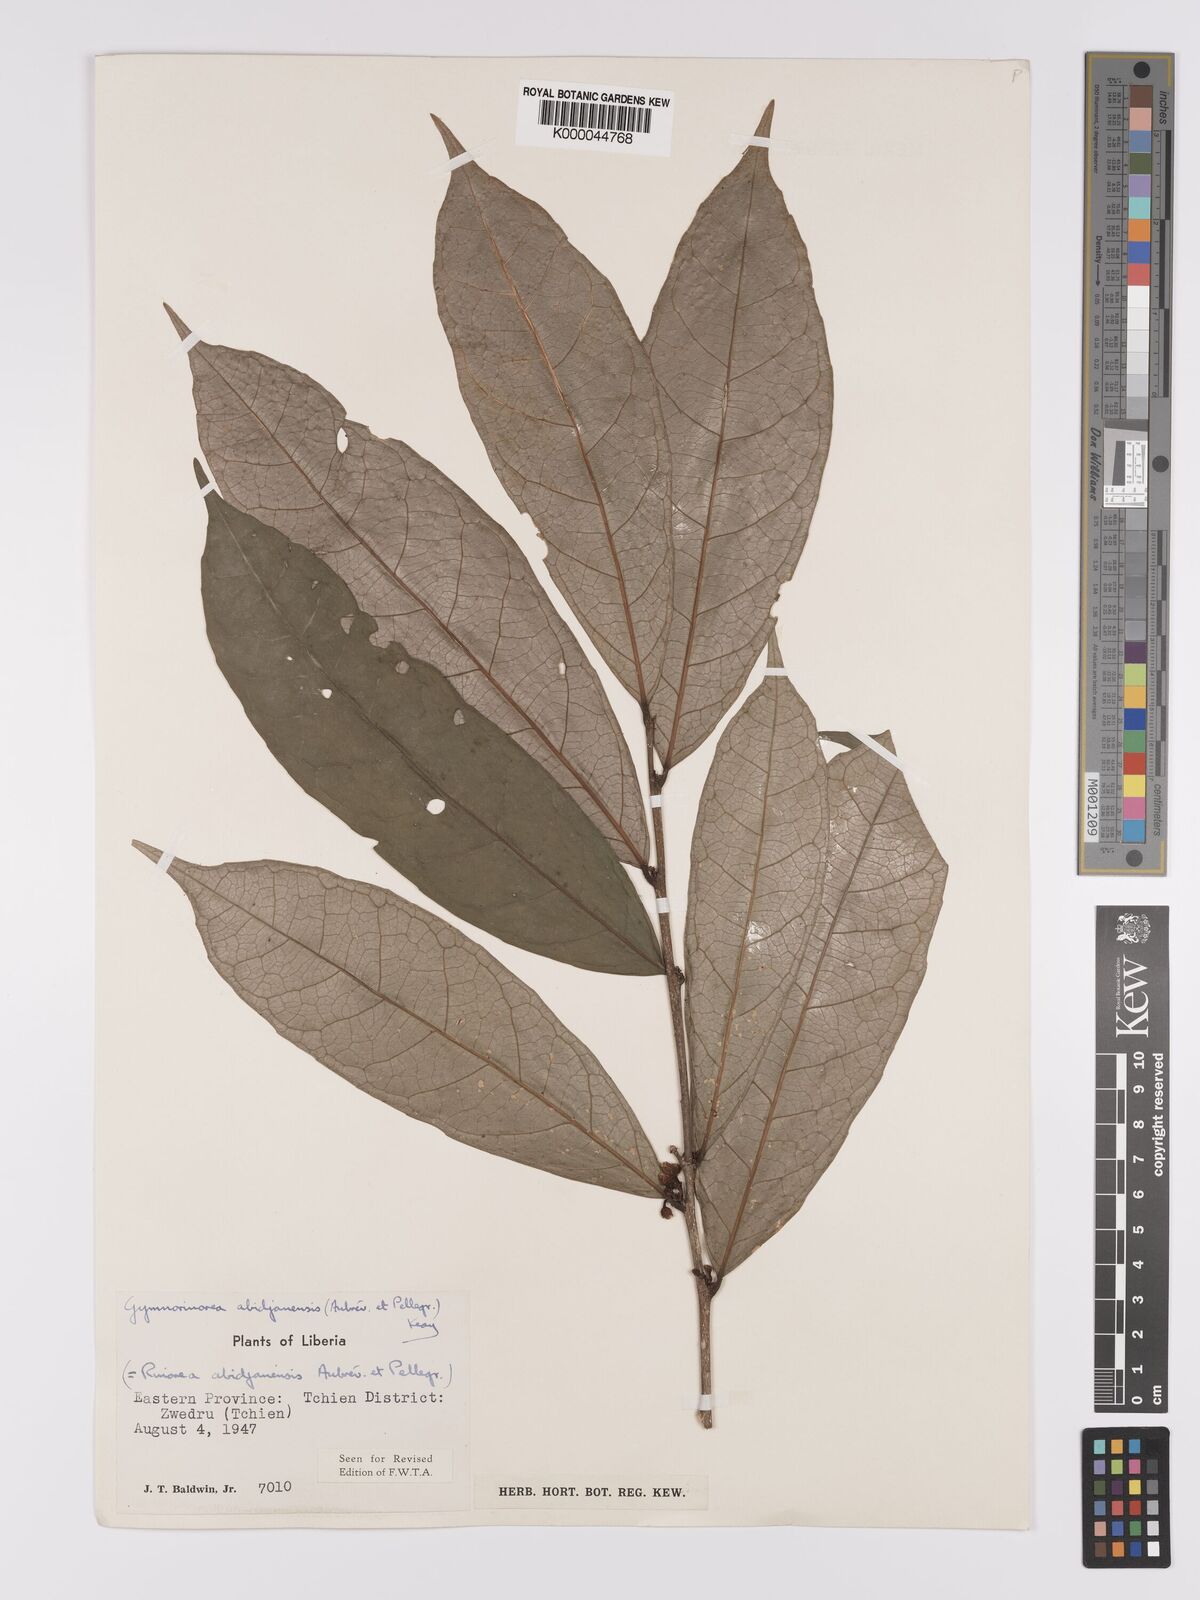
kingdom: Plantae
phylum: Tracheophyta
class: Magnoliopsida
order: Malpighiales
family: Violaceae
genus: Decorsella
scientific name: Decorsella paradoxa
